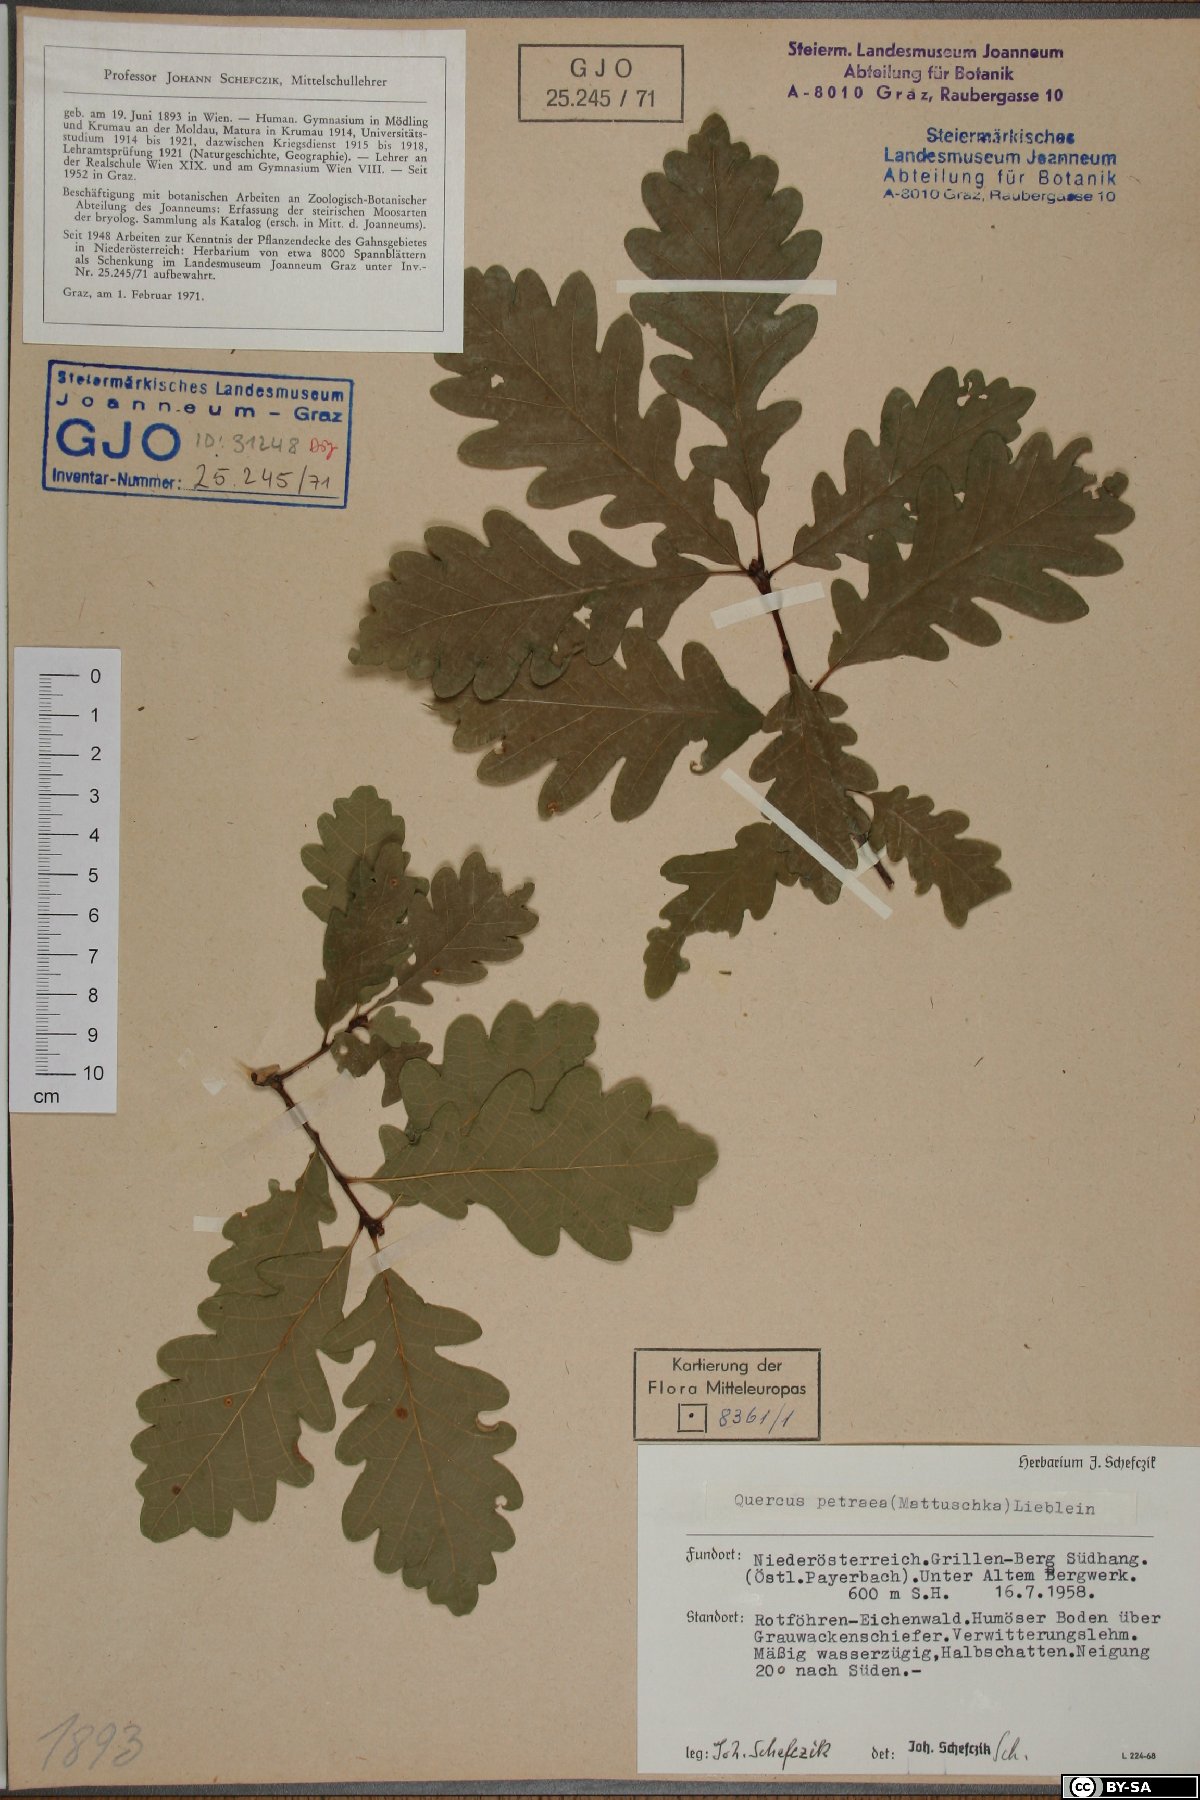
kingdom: Plantae
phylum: Tracheophyta
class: Magnoliopsida
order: Fagales
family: Fagaceae
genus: Quercus
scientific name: Quercus petraea
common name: Sessile oak
